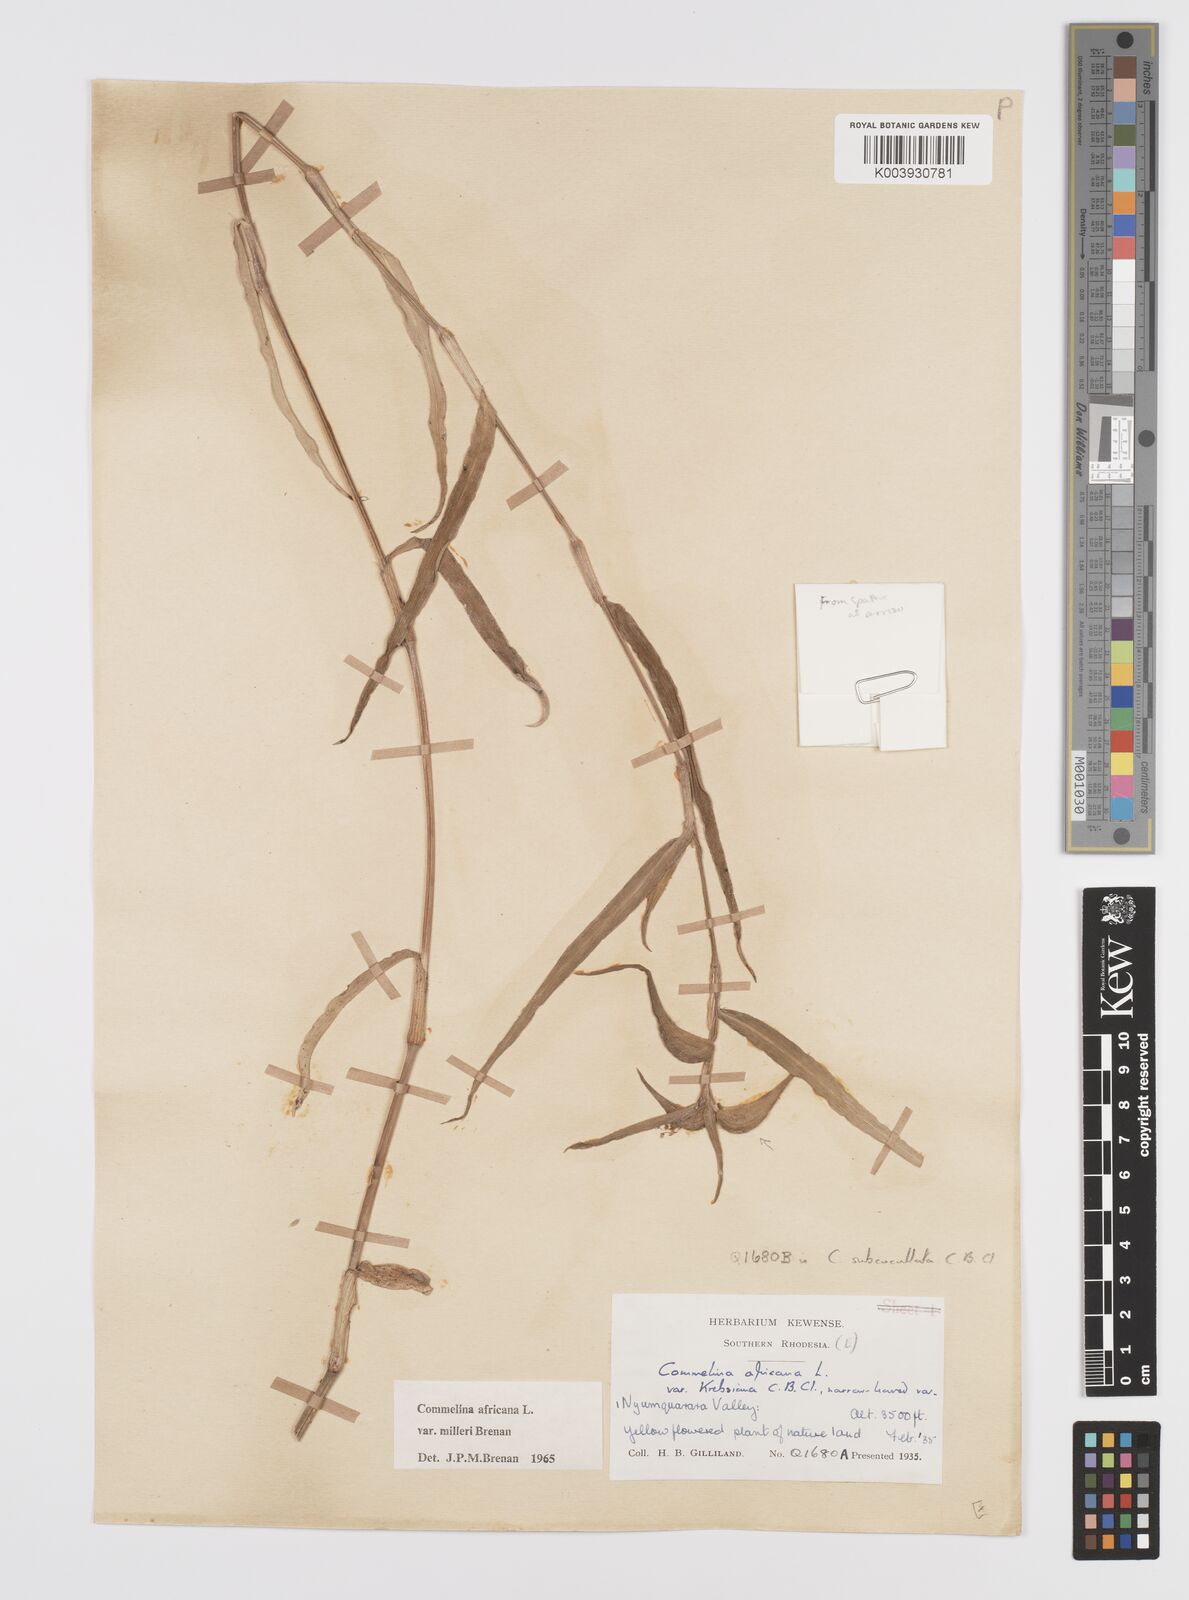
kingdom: Plantae
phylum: Tracheophyta
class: Liliopsida
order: Commelinales
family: Commelinaceae
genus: Commelina
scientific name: Commelina africana
